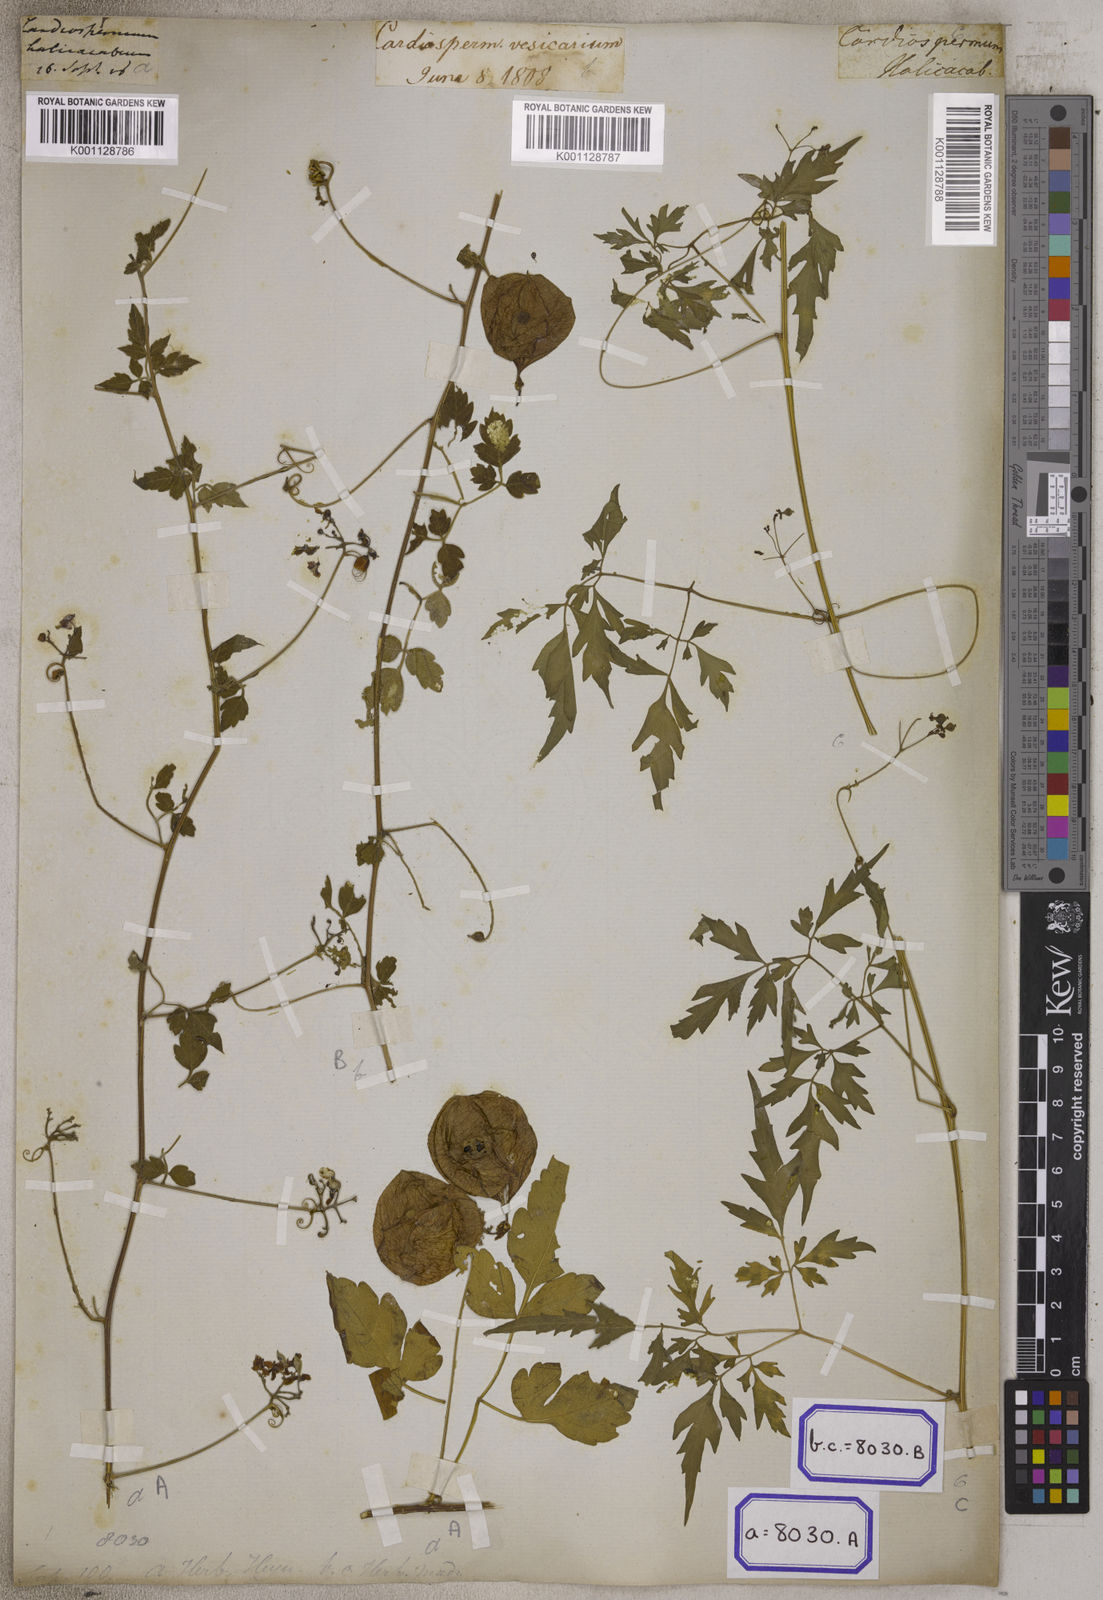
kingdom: Plantae
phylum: Tracheophyta
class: Magnoliopsida
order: Sapindales
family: Sapindaceae
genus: Cardiospermum
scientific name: Cardiospermum halicacabum
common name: Balloon vine
